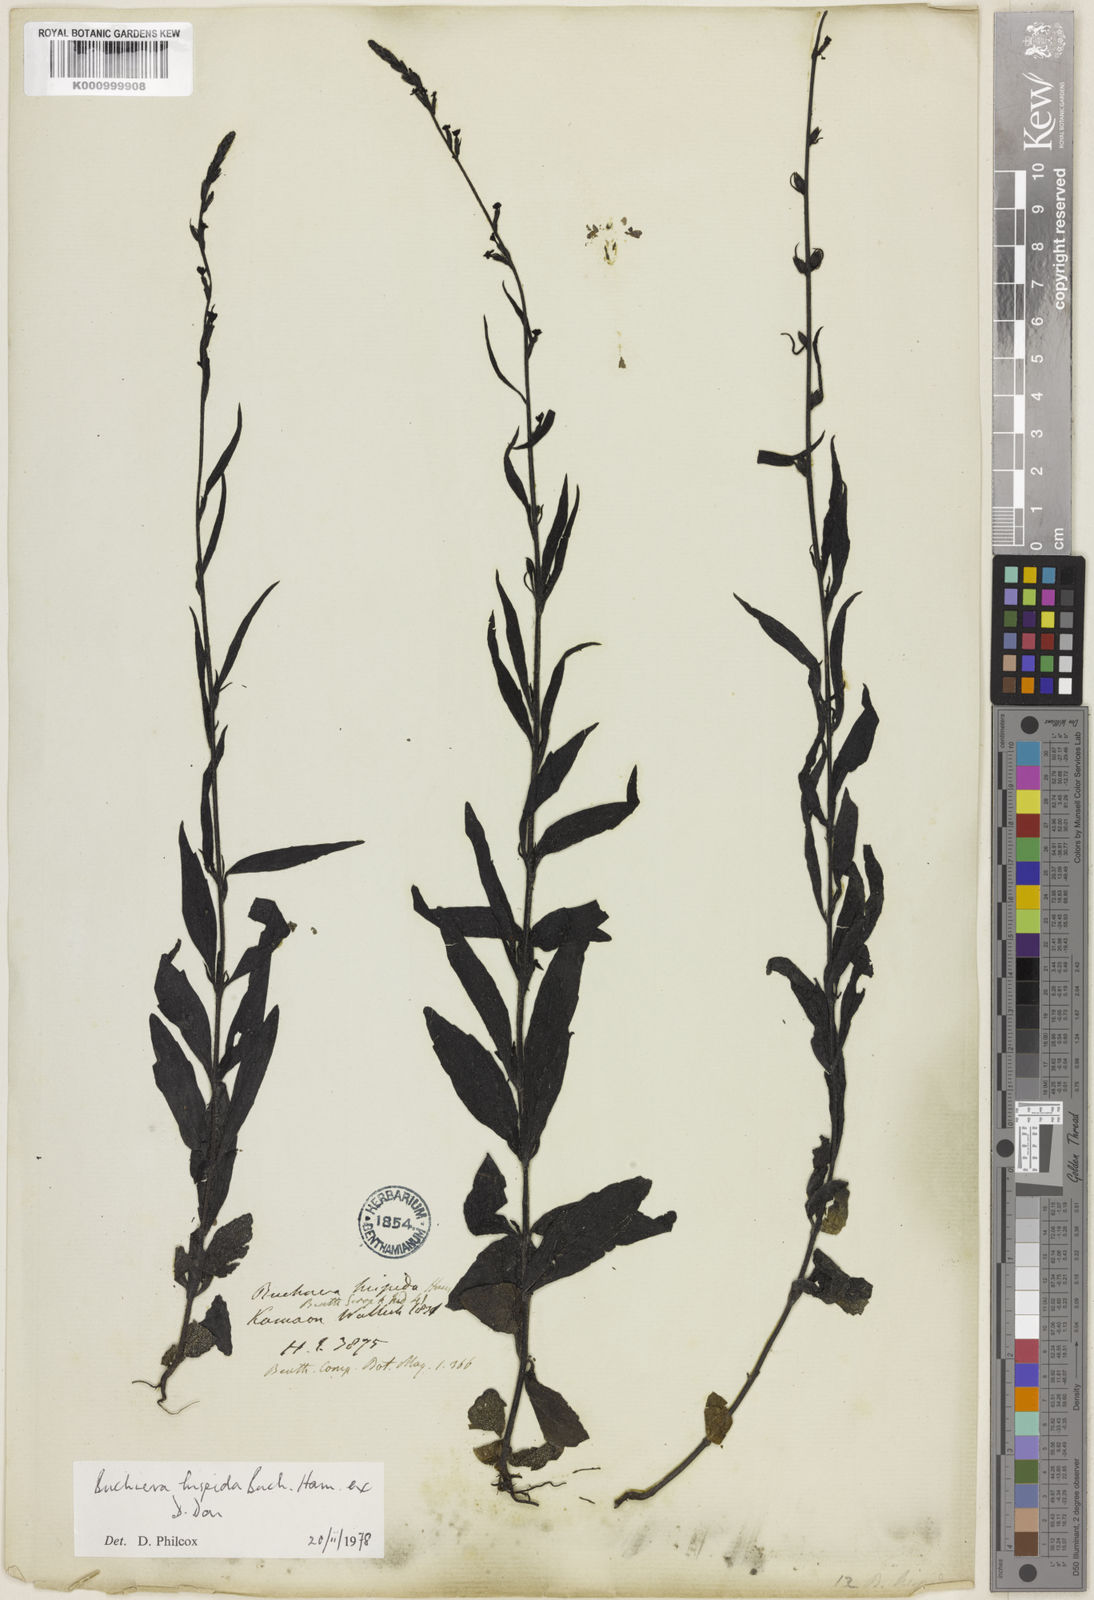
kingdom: Plantae
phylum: Tracheophyta
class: Magnoliopsida
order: Lamiales
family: Orobanchaceae
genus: Buchnera
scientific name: Buchnera hispida
